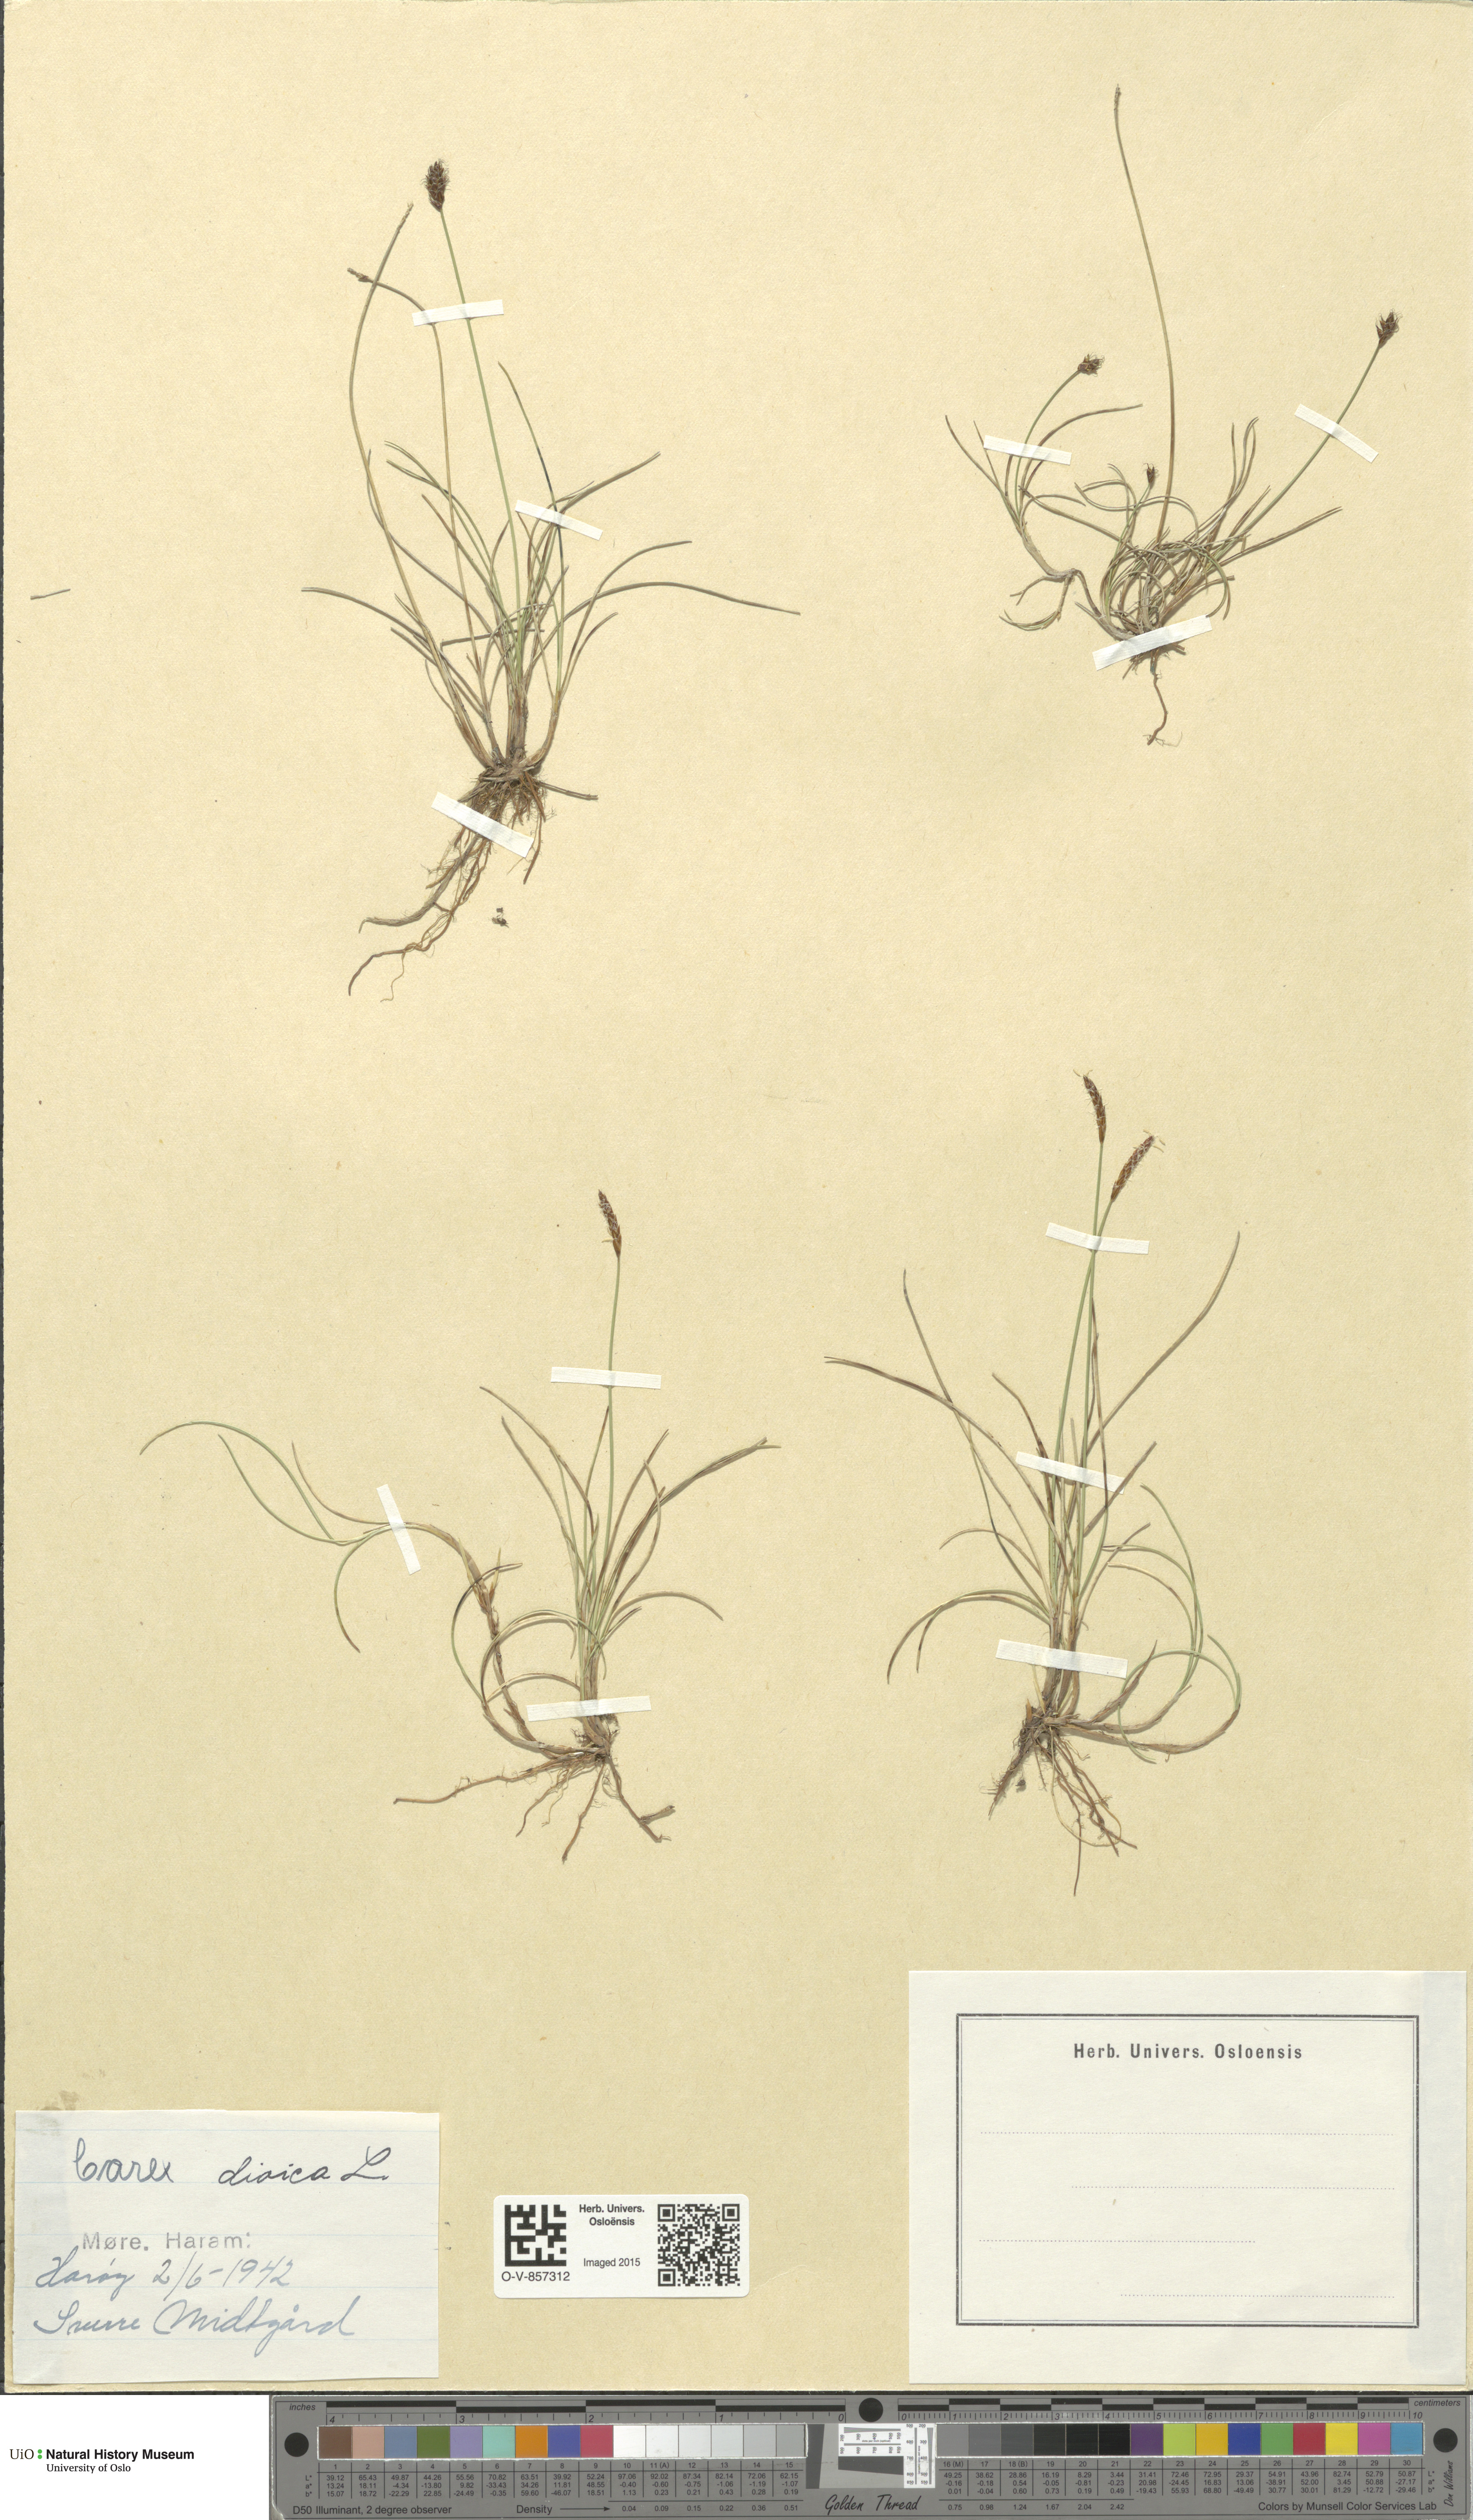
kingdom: Plantae
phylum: Tracheophyta
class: Liliopsida
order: Poales
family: Cyperaceae
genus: Carex
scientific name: Carex dioica
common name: Dioecious sedge
